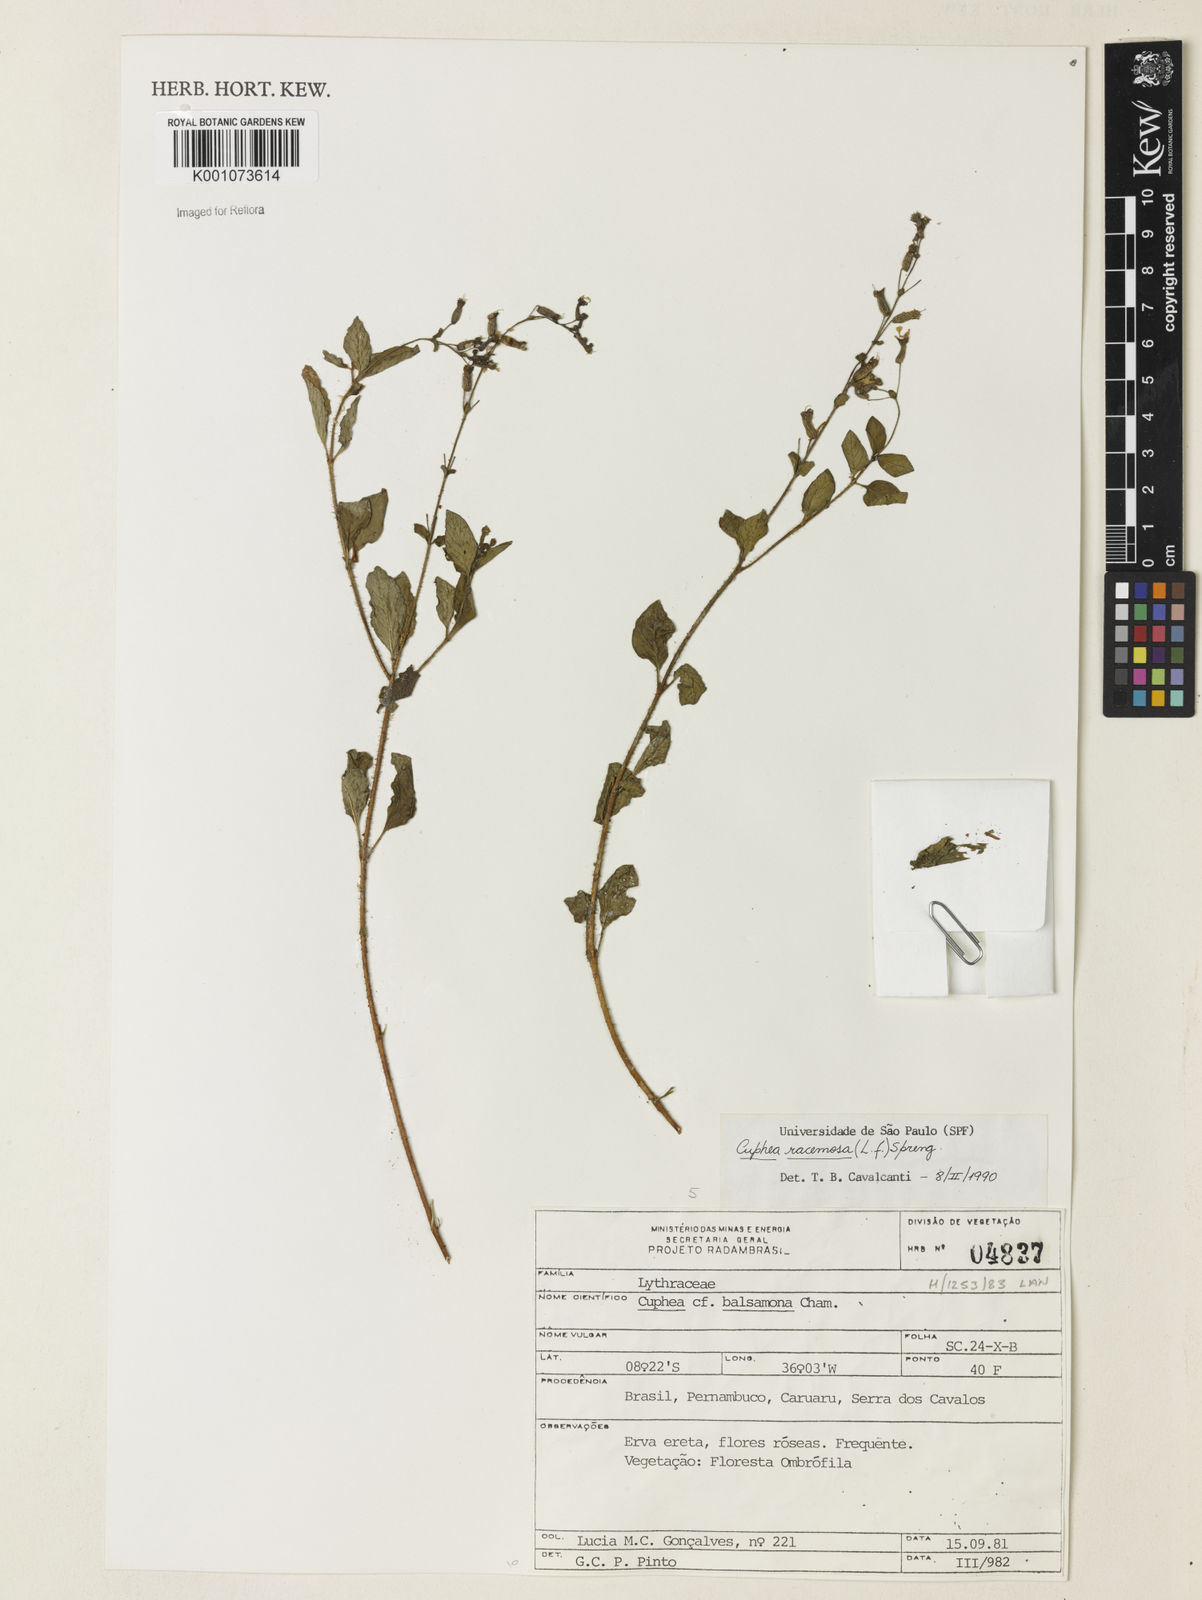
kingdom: Plantae
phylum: Tracheophyta
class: Magnoliopsida
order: Myrtales
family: Lythraceae
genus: Cuphea
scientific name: Cuphea racemosa
